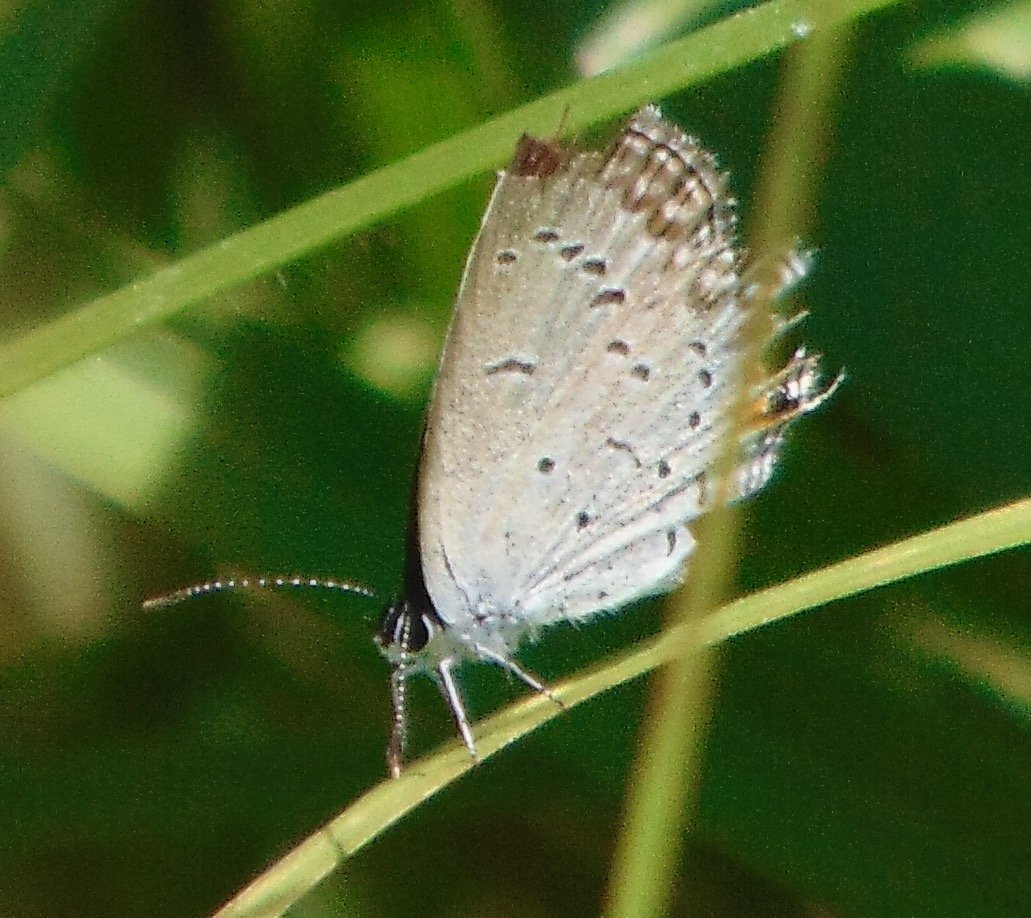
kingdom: Animalia
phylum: Arthropoda
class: Insecta
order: Lepidoptera
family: Lycaenidae
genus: Elkalyce
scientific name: Elkalyce comyntas
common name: Eastern Tailed-Blue
